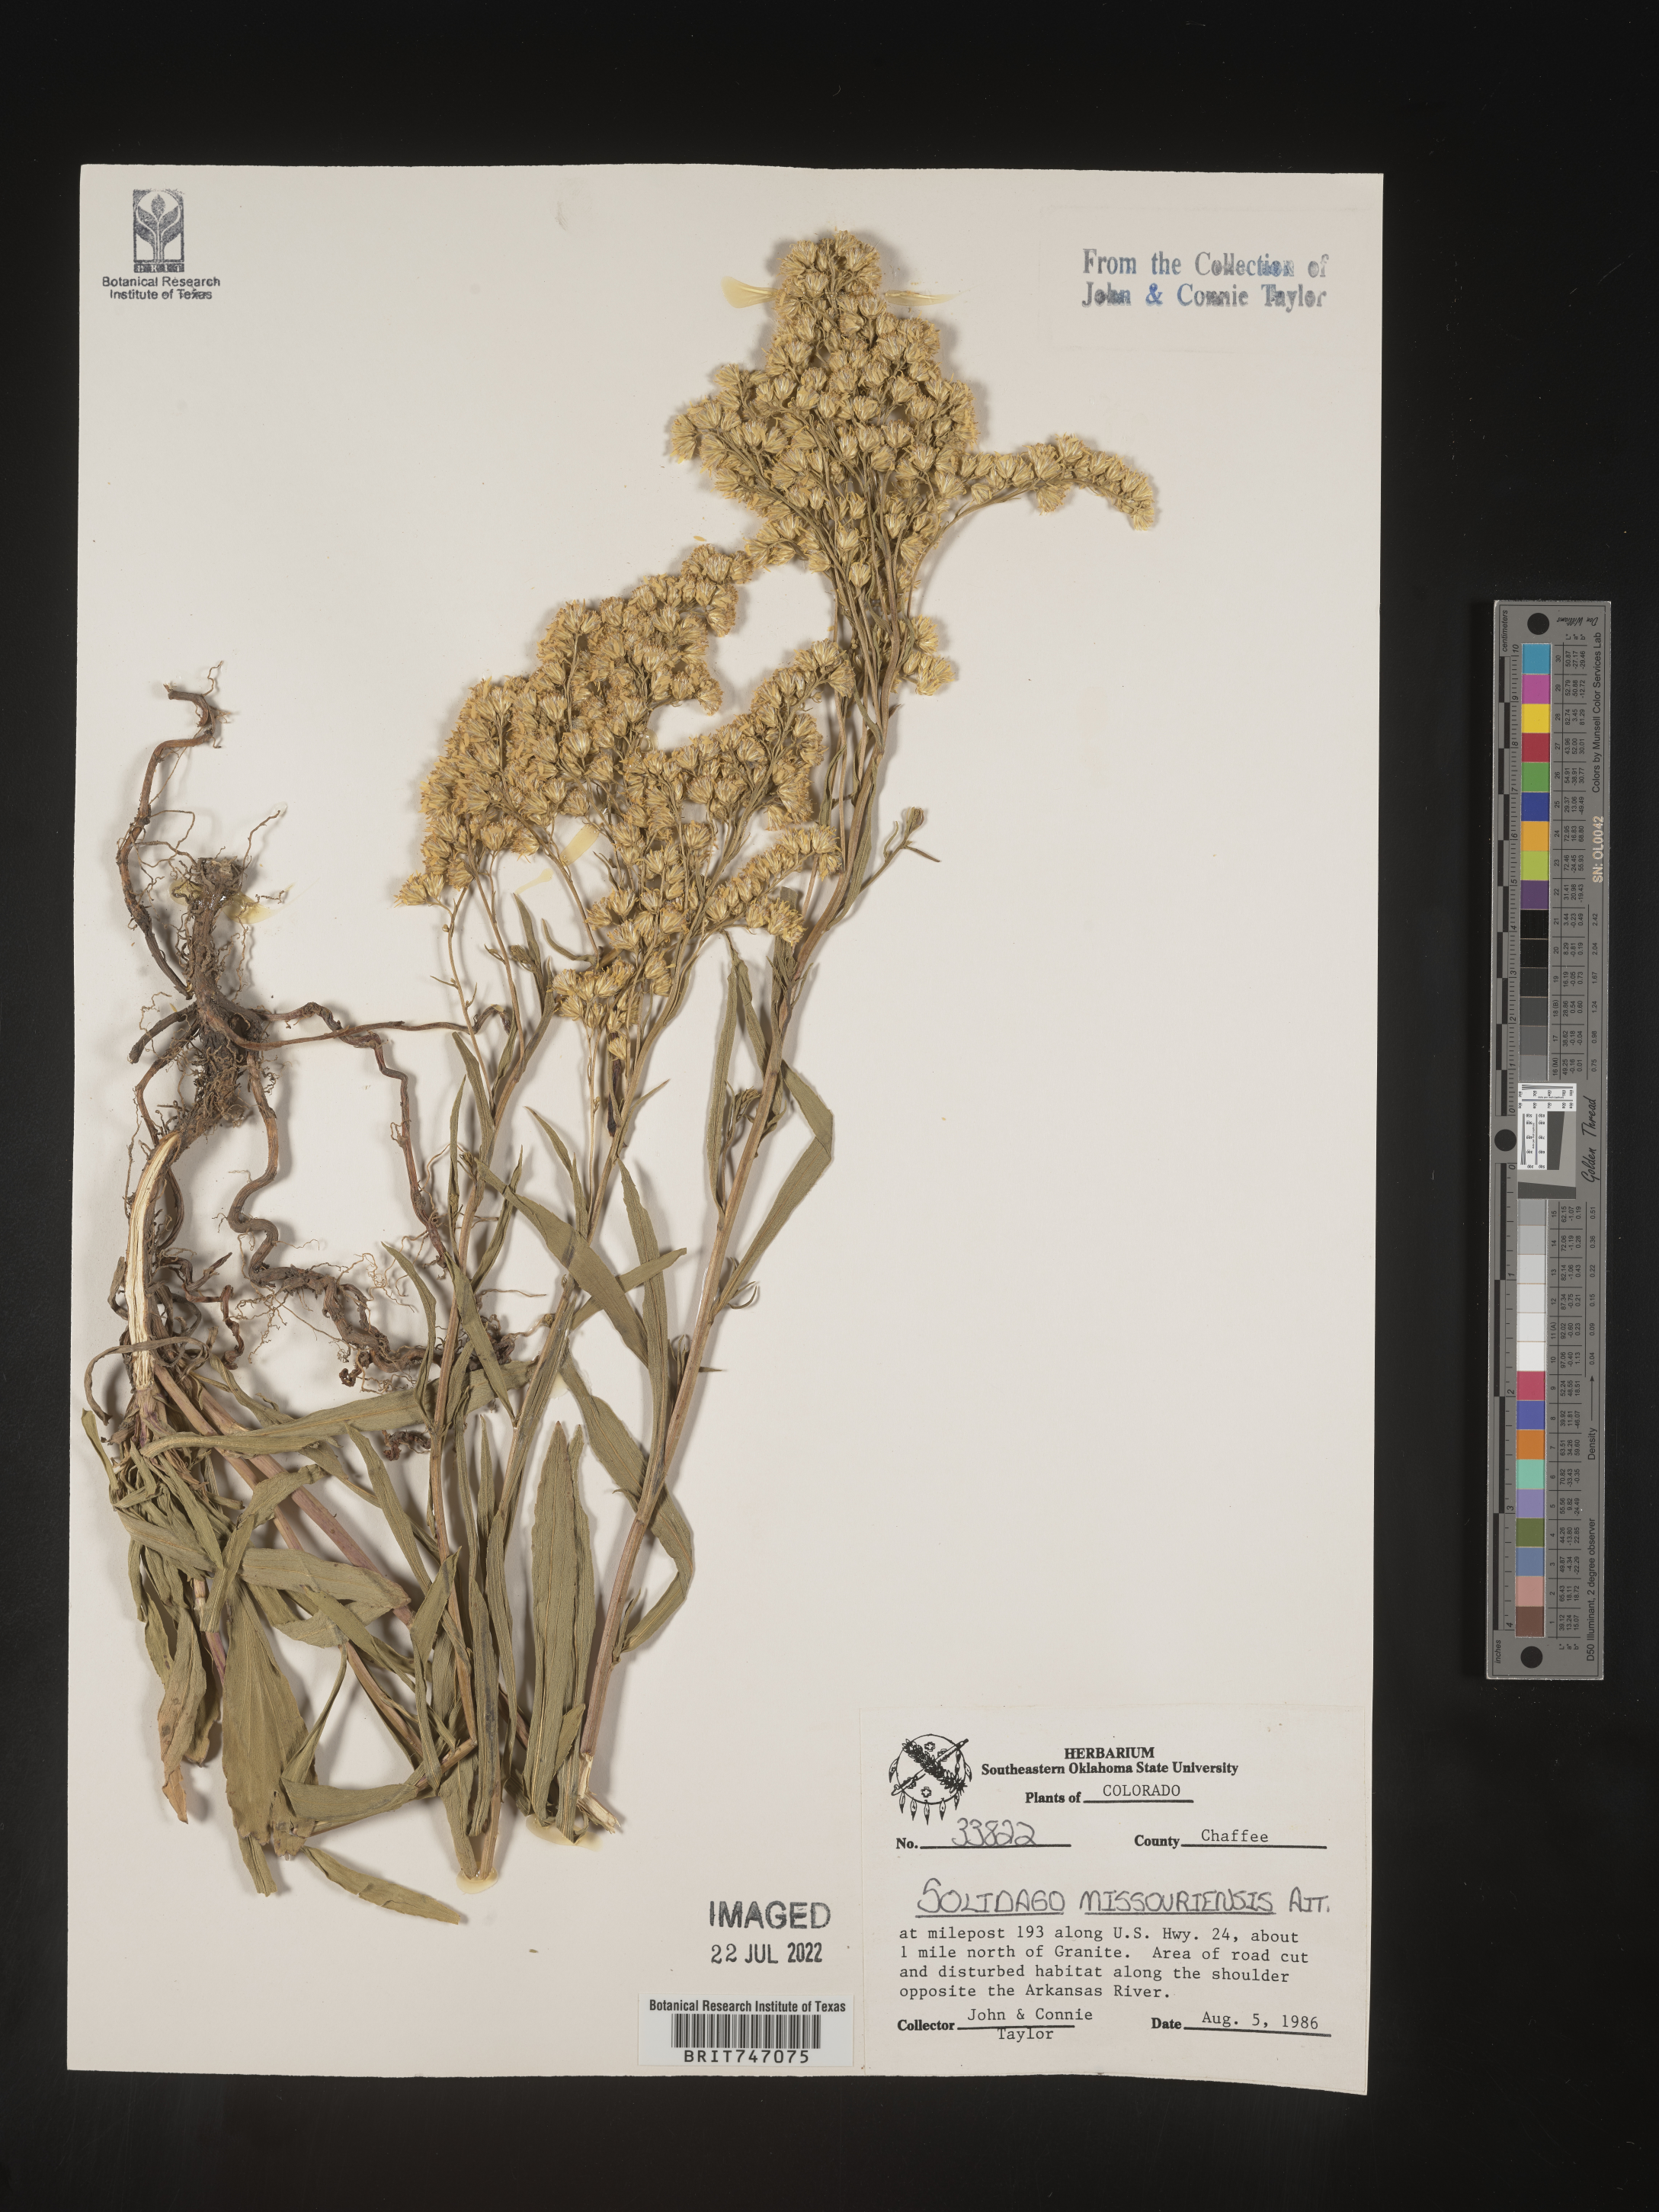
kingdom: Plantae
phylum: Tracheophyta
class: Magnoliopsida
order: Asterales
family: Asteraceae
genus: Solidago
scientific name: Solidago missouriensis
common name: Prairie goldenrod
